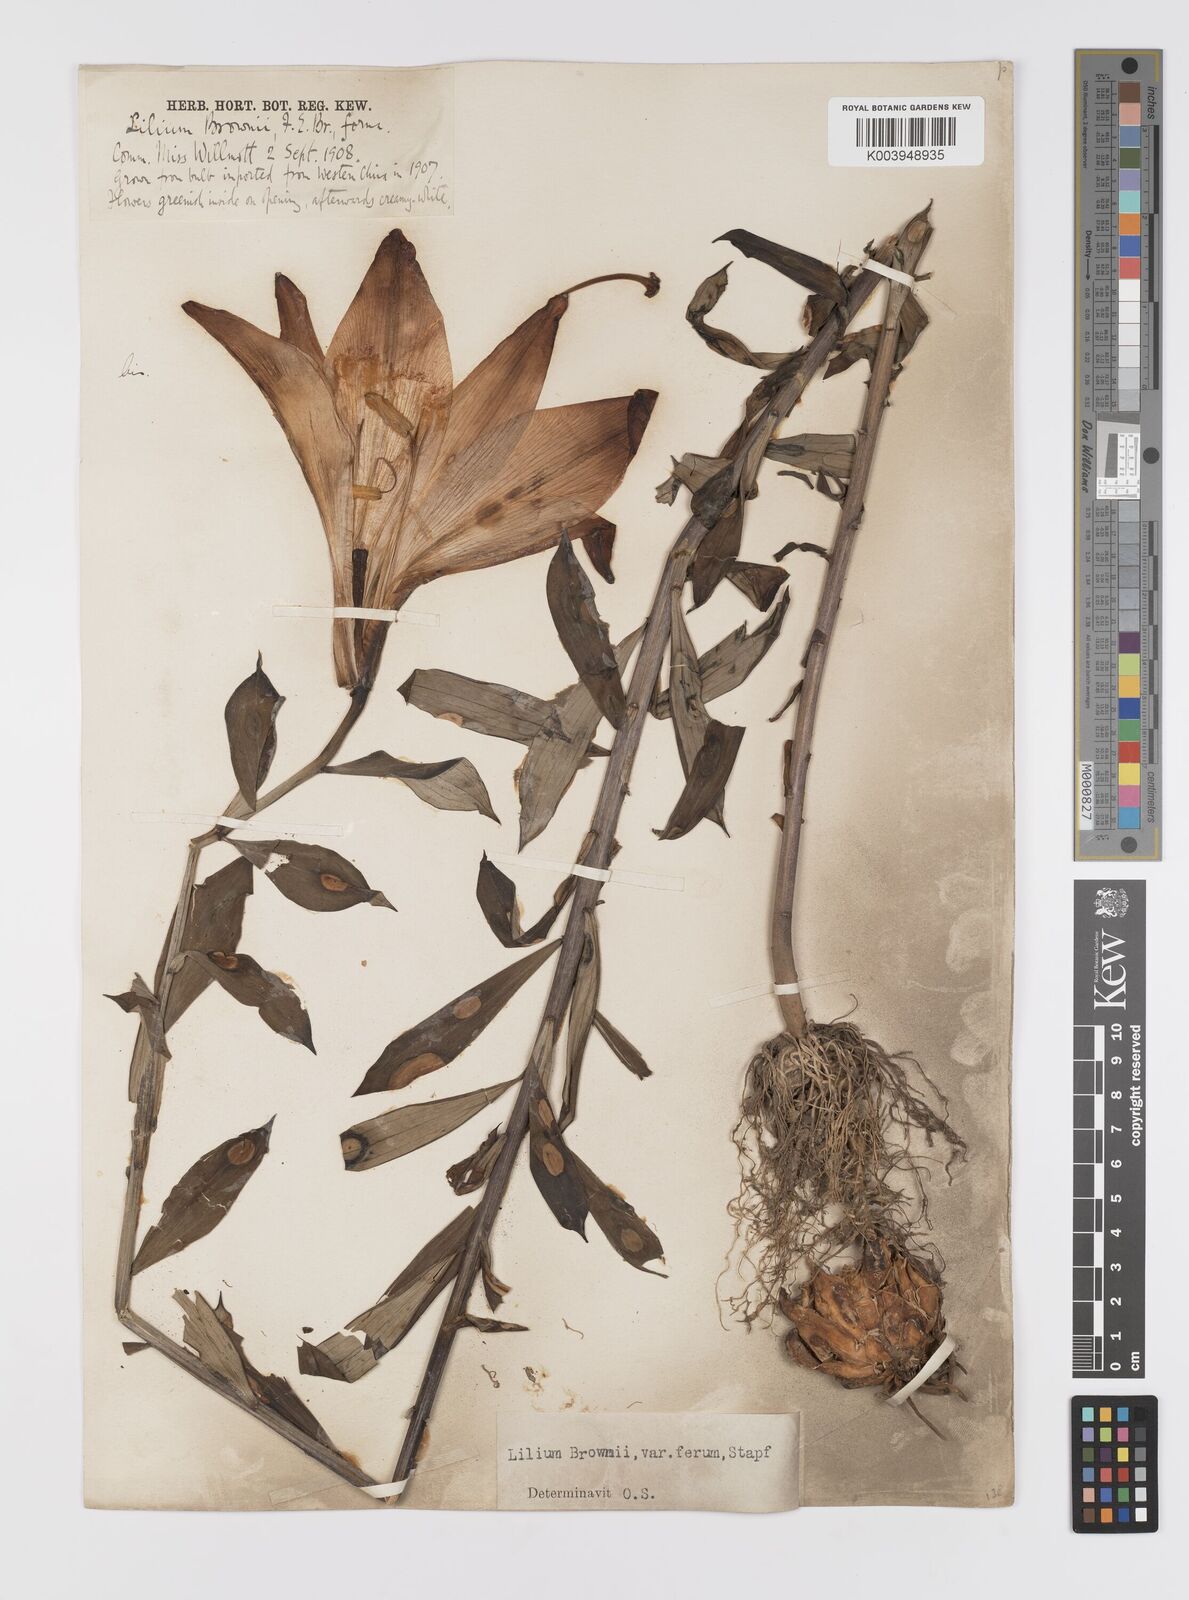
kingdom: Plantae
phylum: Tracheophyta
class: Liliopsida
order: Liliales
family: Liliaceae
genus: Lilium
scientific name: Lilium japonicum
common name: Japanese lily
